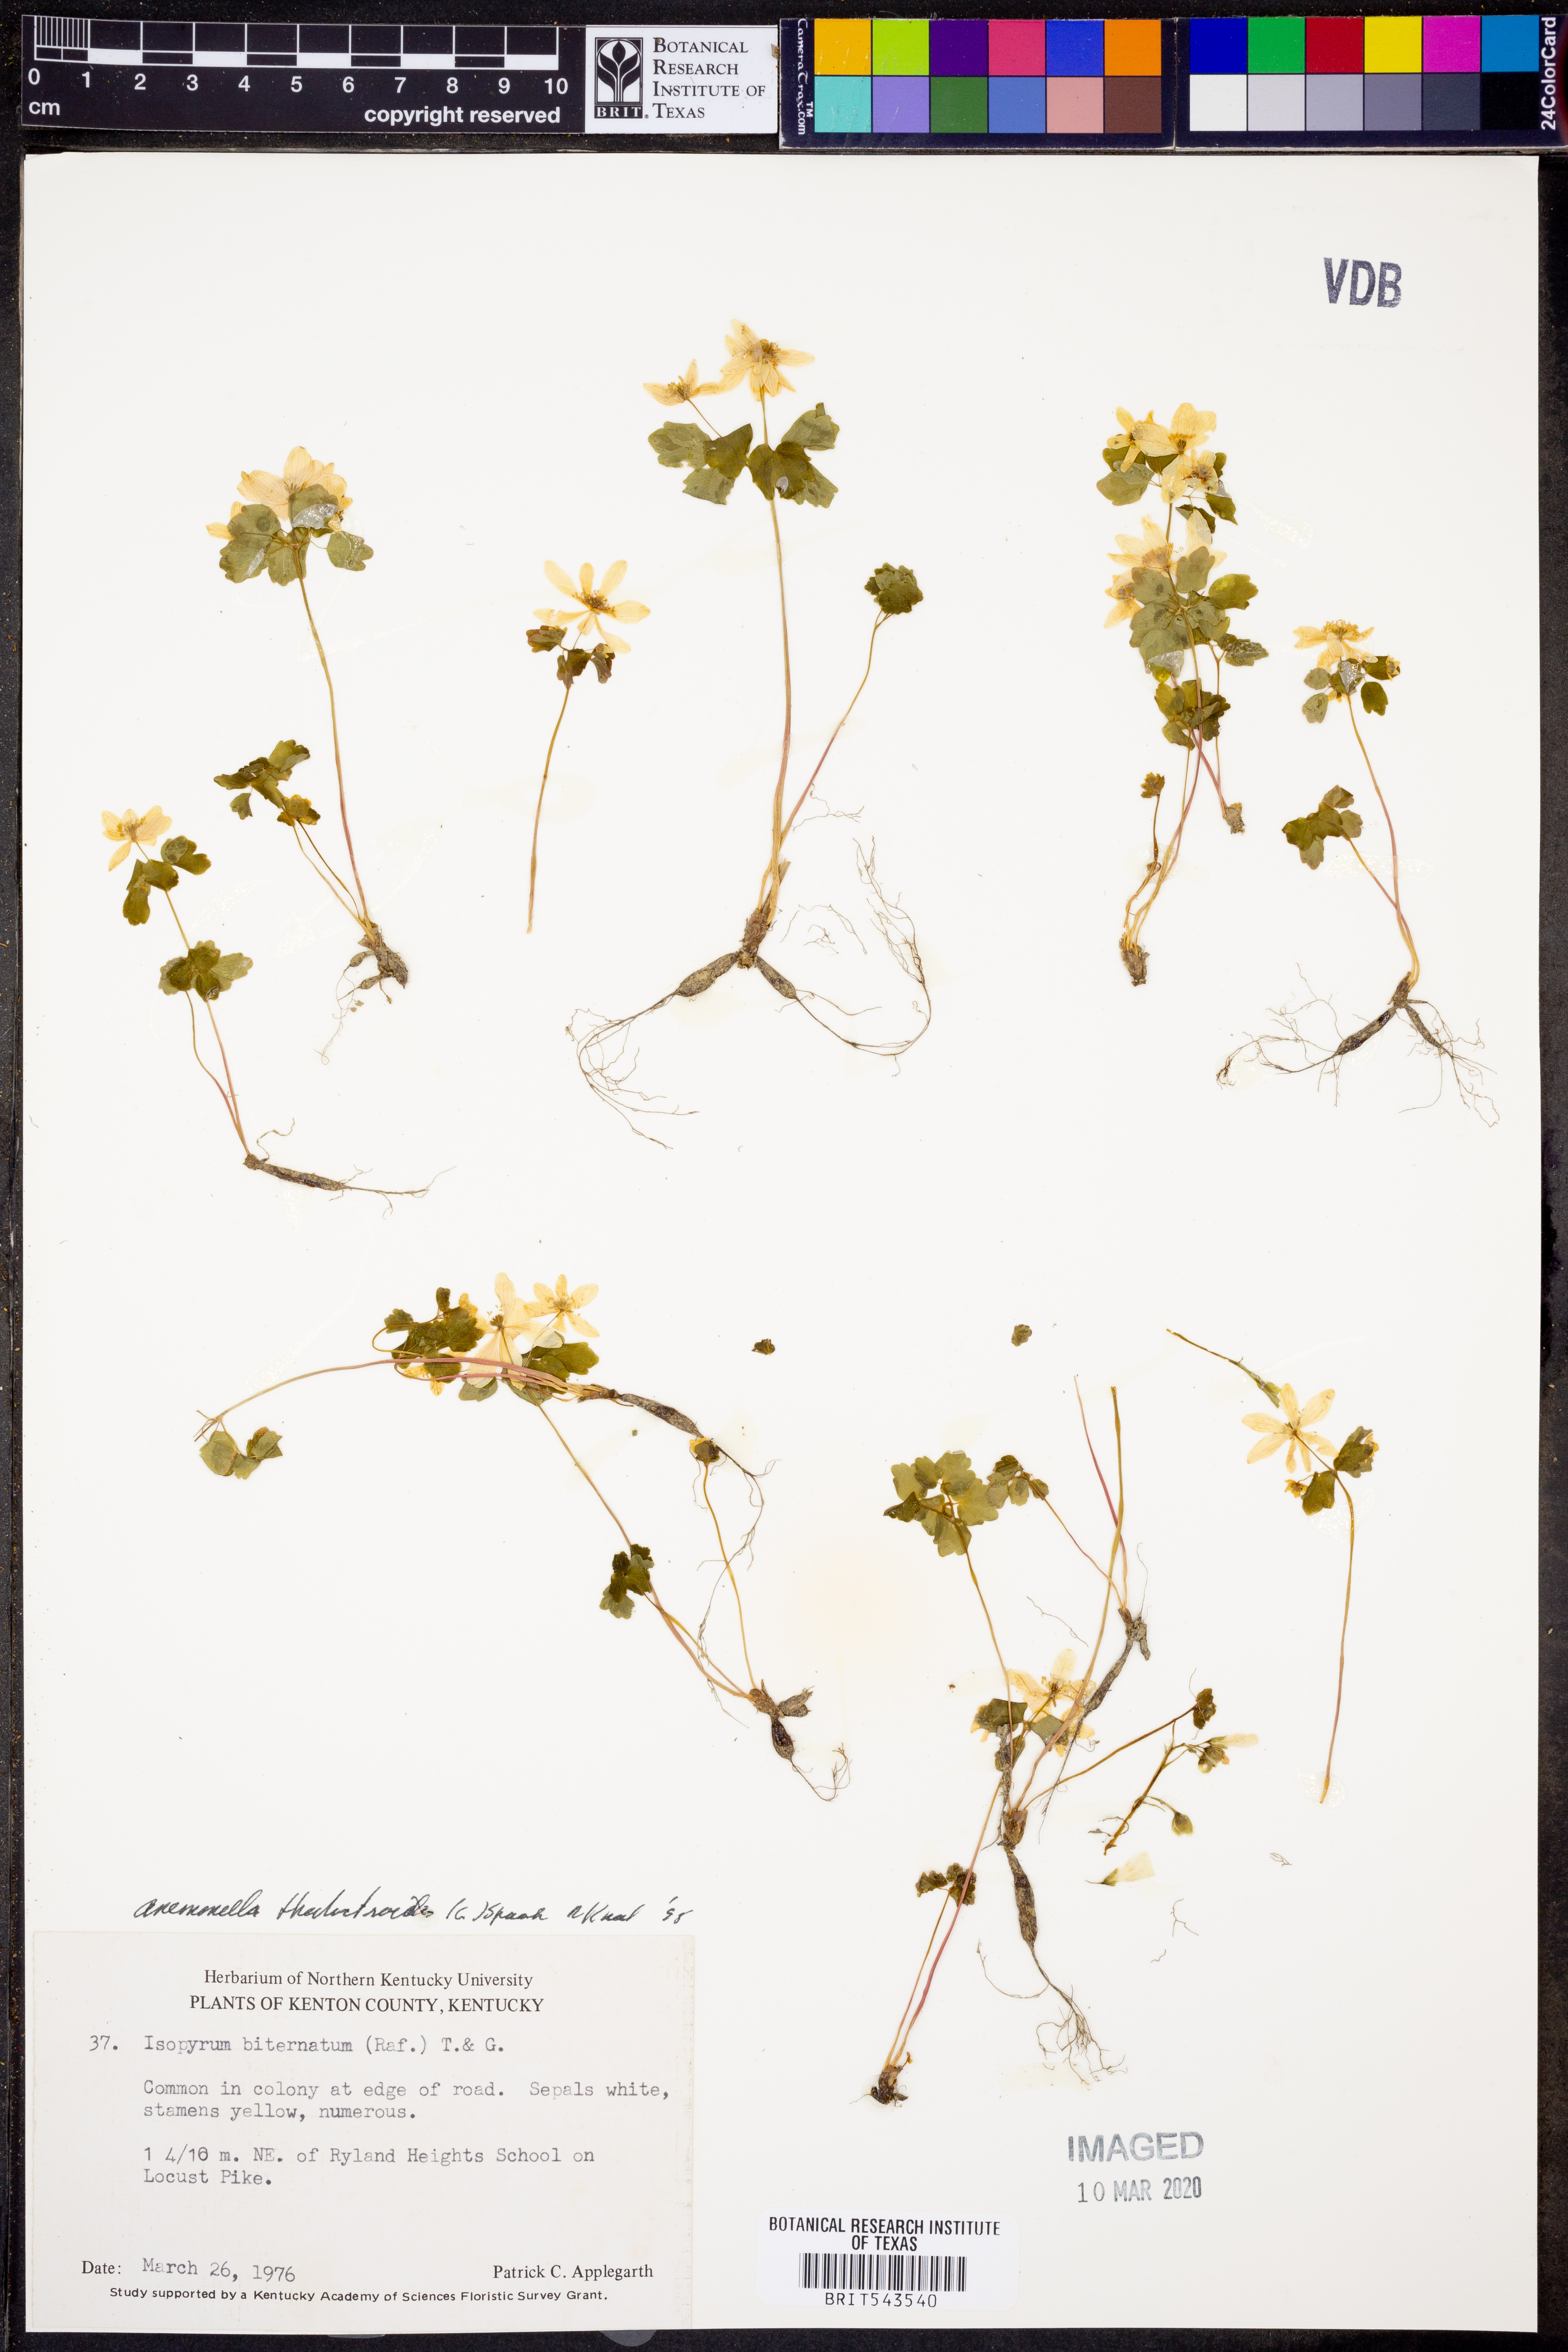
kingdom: Plantae
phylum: Tracheophyta
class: Magnoliopsida
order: Ranunculales
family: Ranunculaceae
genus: Thalictrum
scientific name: Thalictrum thalictroides
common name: Rue-anemone
